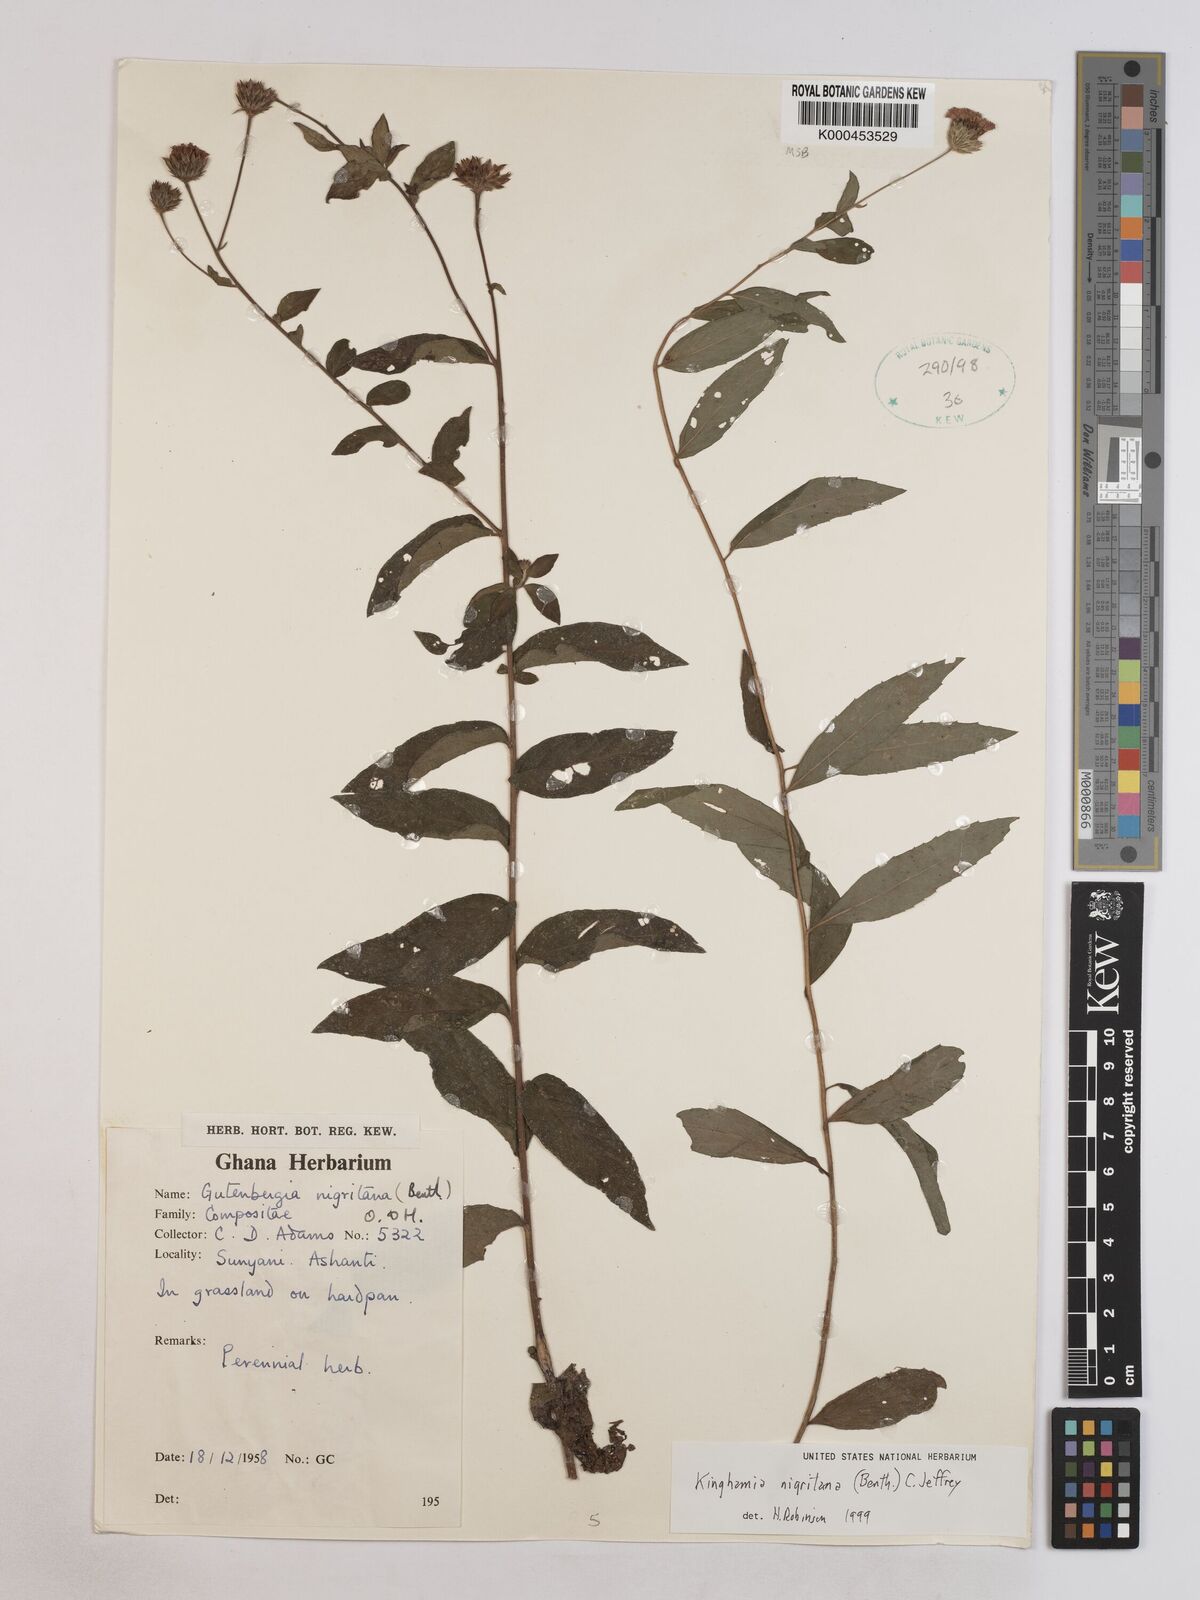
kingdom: Plantae
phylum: Tracheophyta
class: Magnoliopsida
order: Asterales
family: Asteraceae
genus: Kinghamia
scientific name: Kinghamia nigritana
